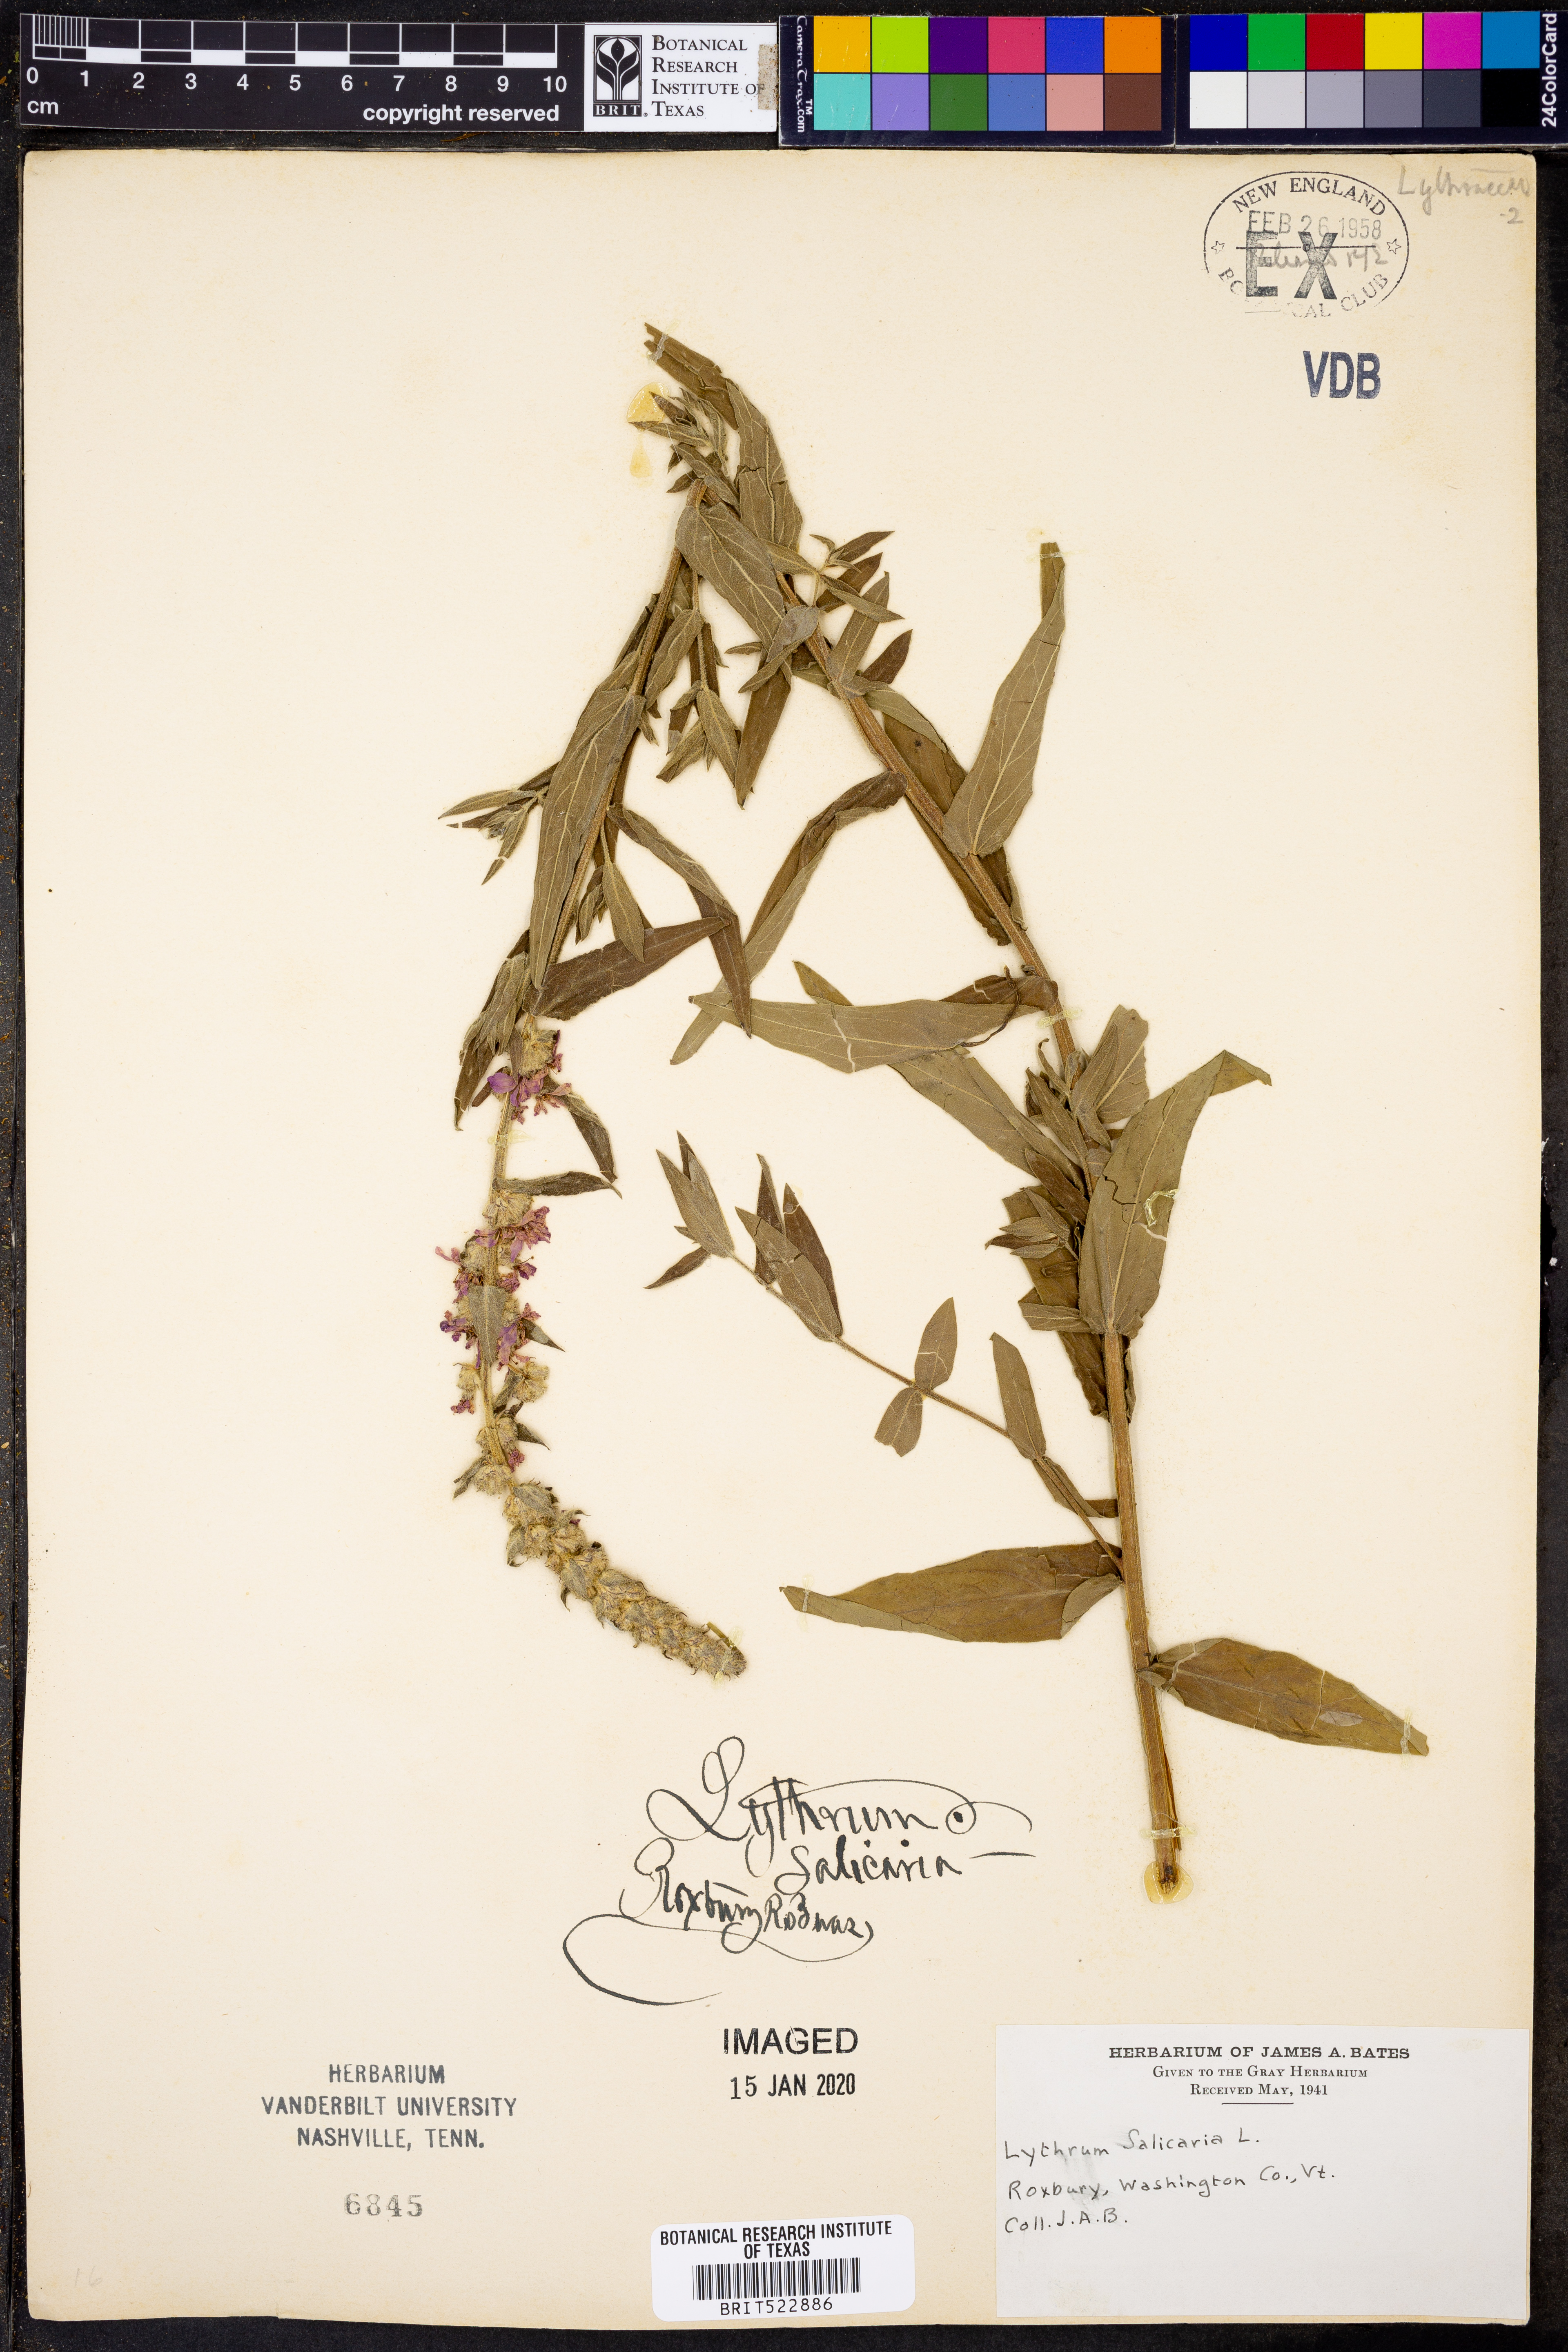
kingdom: Plantae
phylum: Tracheophyta
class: Magnoliopsida
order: Myrtales
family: Lythraceae
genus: Lythrum
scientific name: Lythrum salicaria
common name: Purple loosestrife
